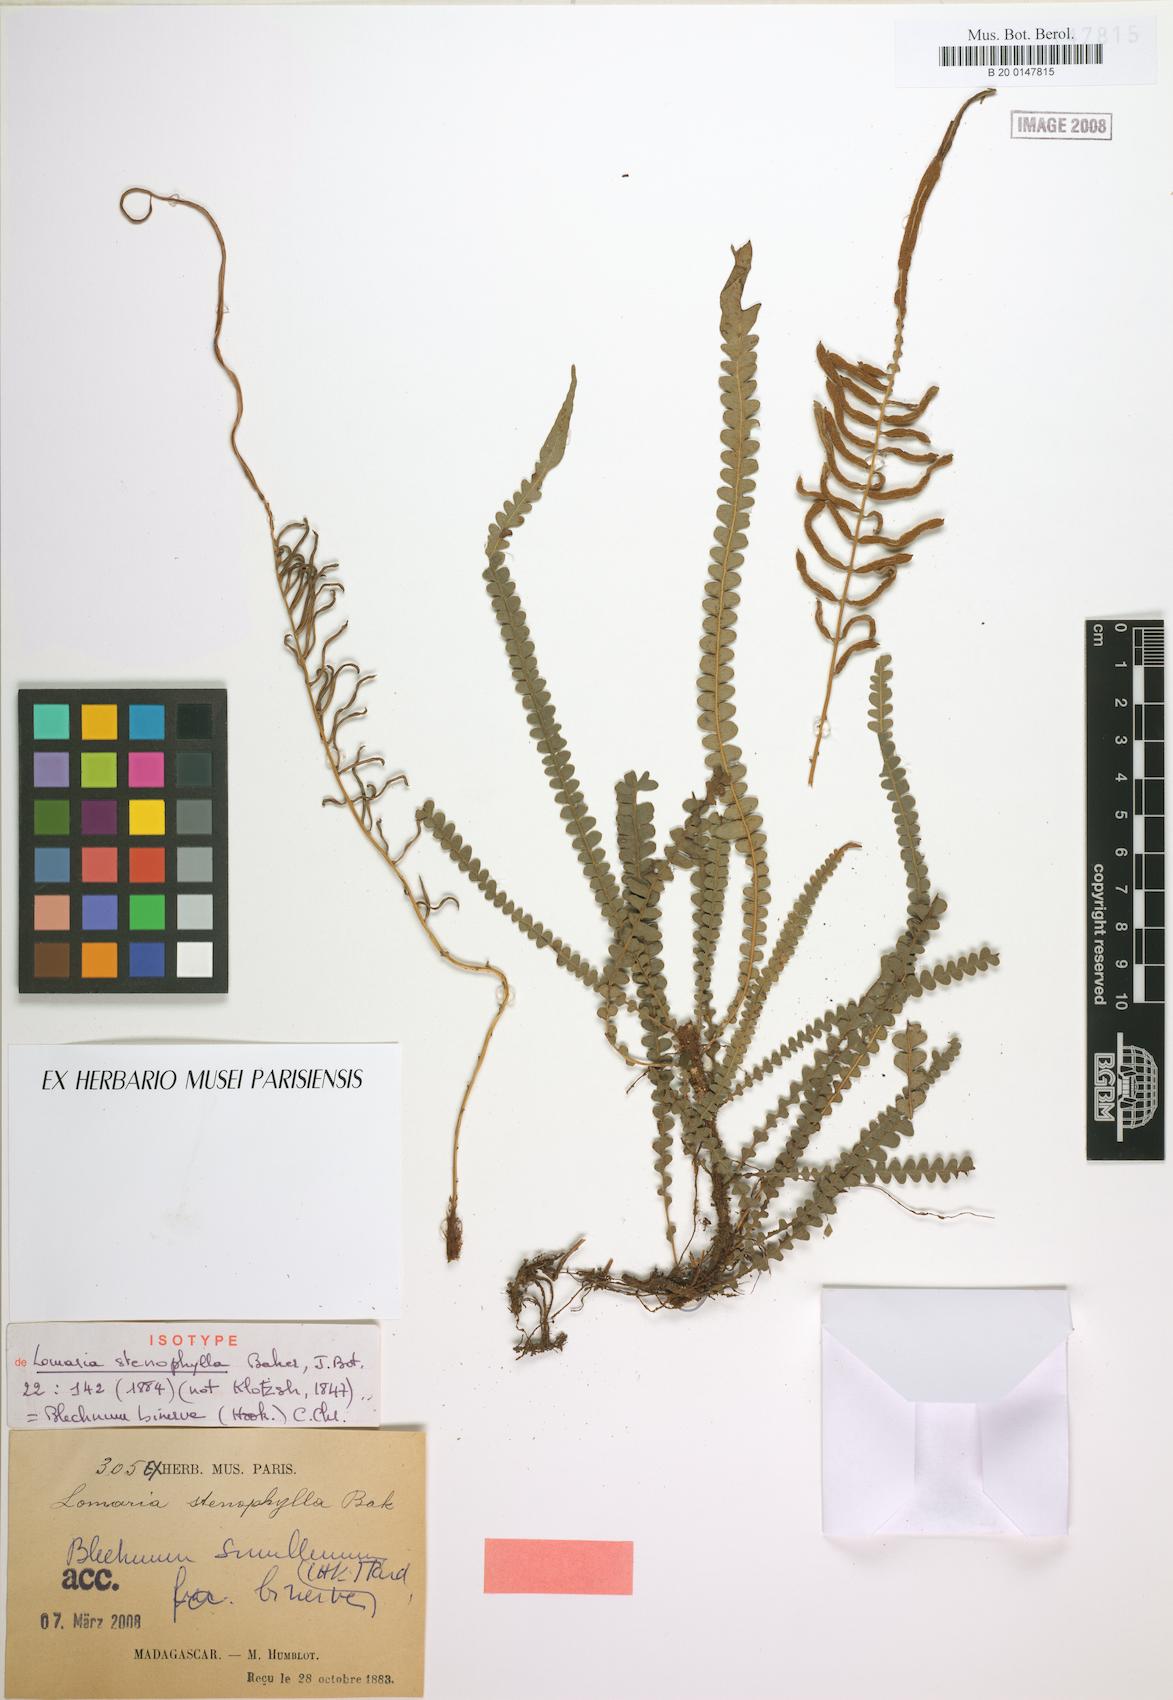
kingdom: Plantae
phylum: Tracheophyta
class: Polypodiopsida
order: Polypodiales
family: Blechnaceae
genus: Lomaridium
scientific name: Lomaridium attenuatum
